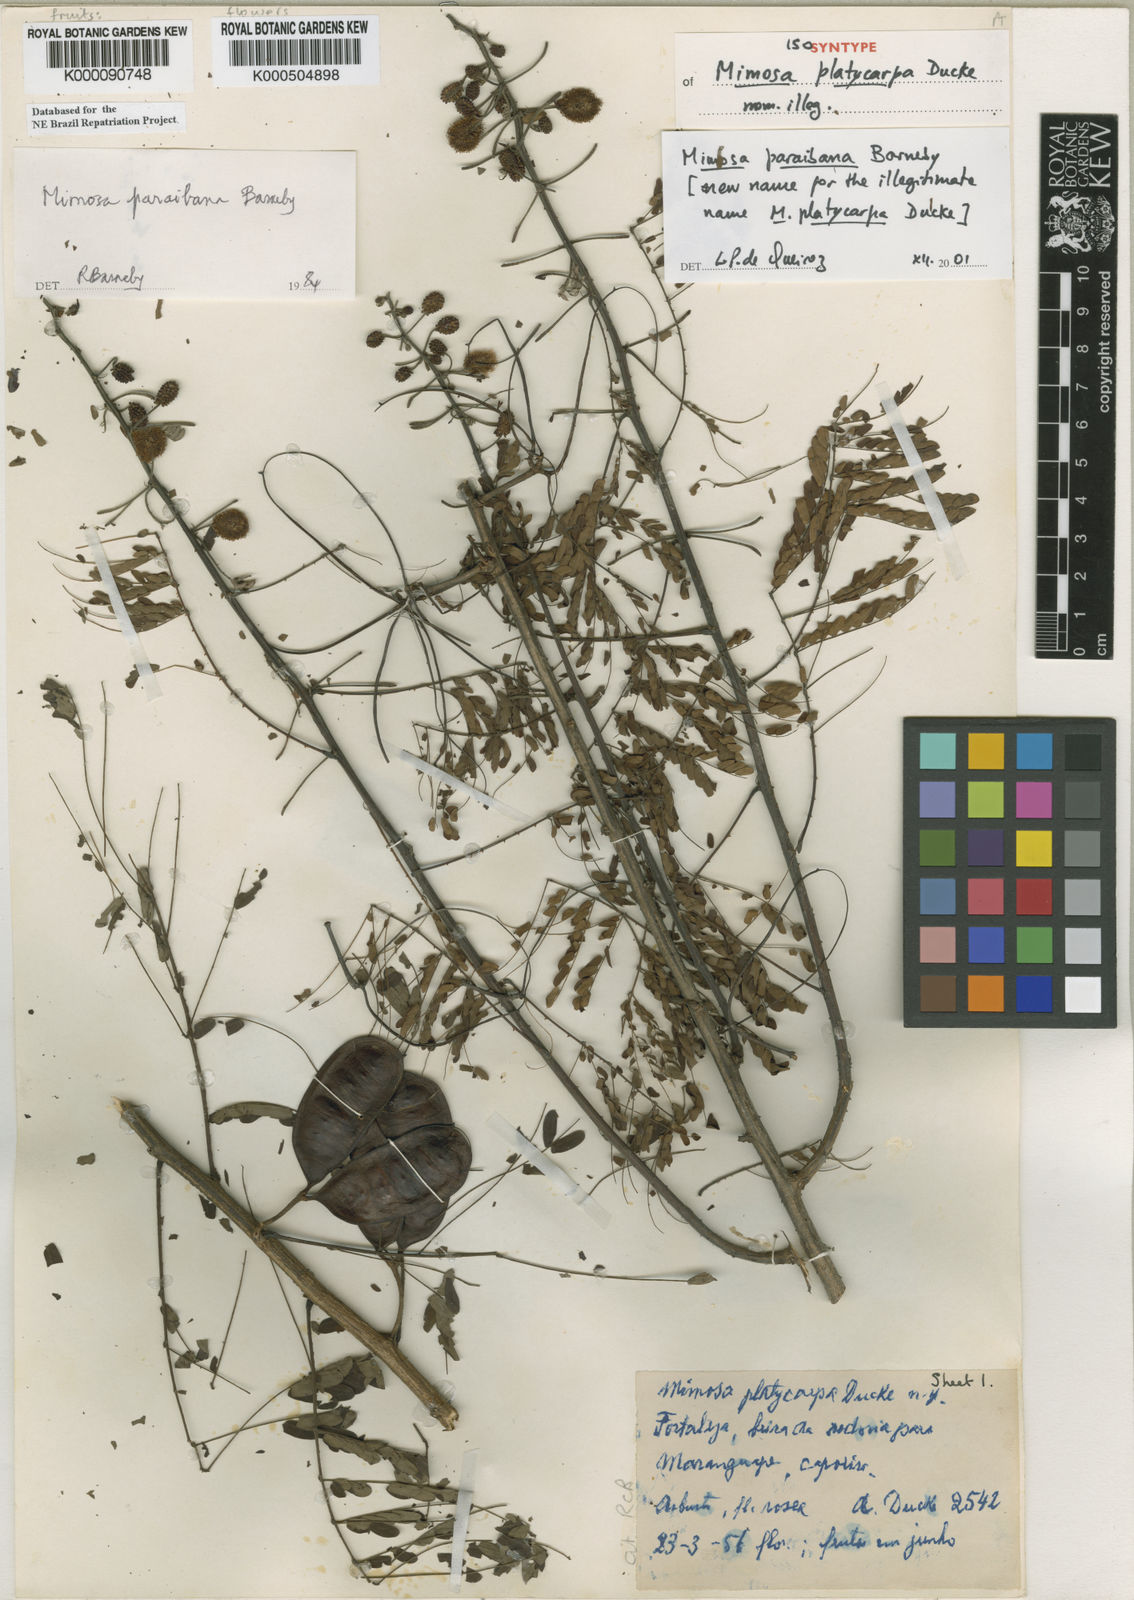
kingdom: Plantae
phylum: Tracheophyta
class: Magnoliopsida
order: Fabales
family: Fabaceae
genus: Mimosa
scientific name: Mimosa paraibana
